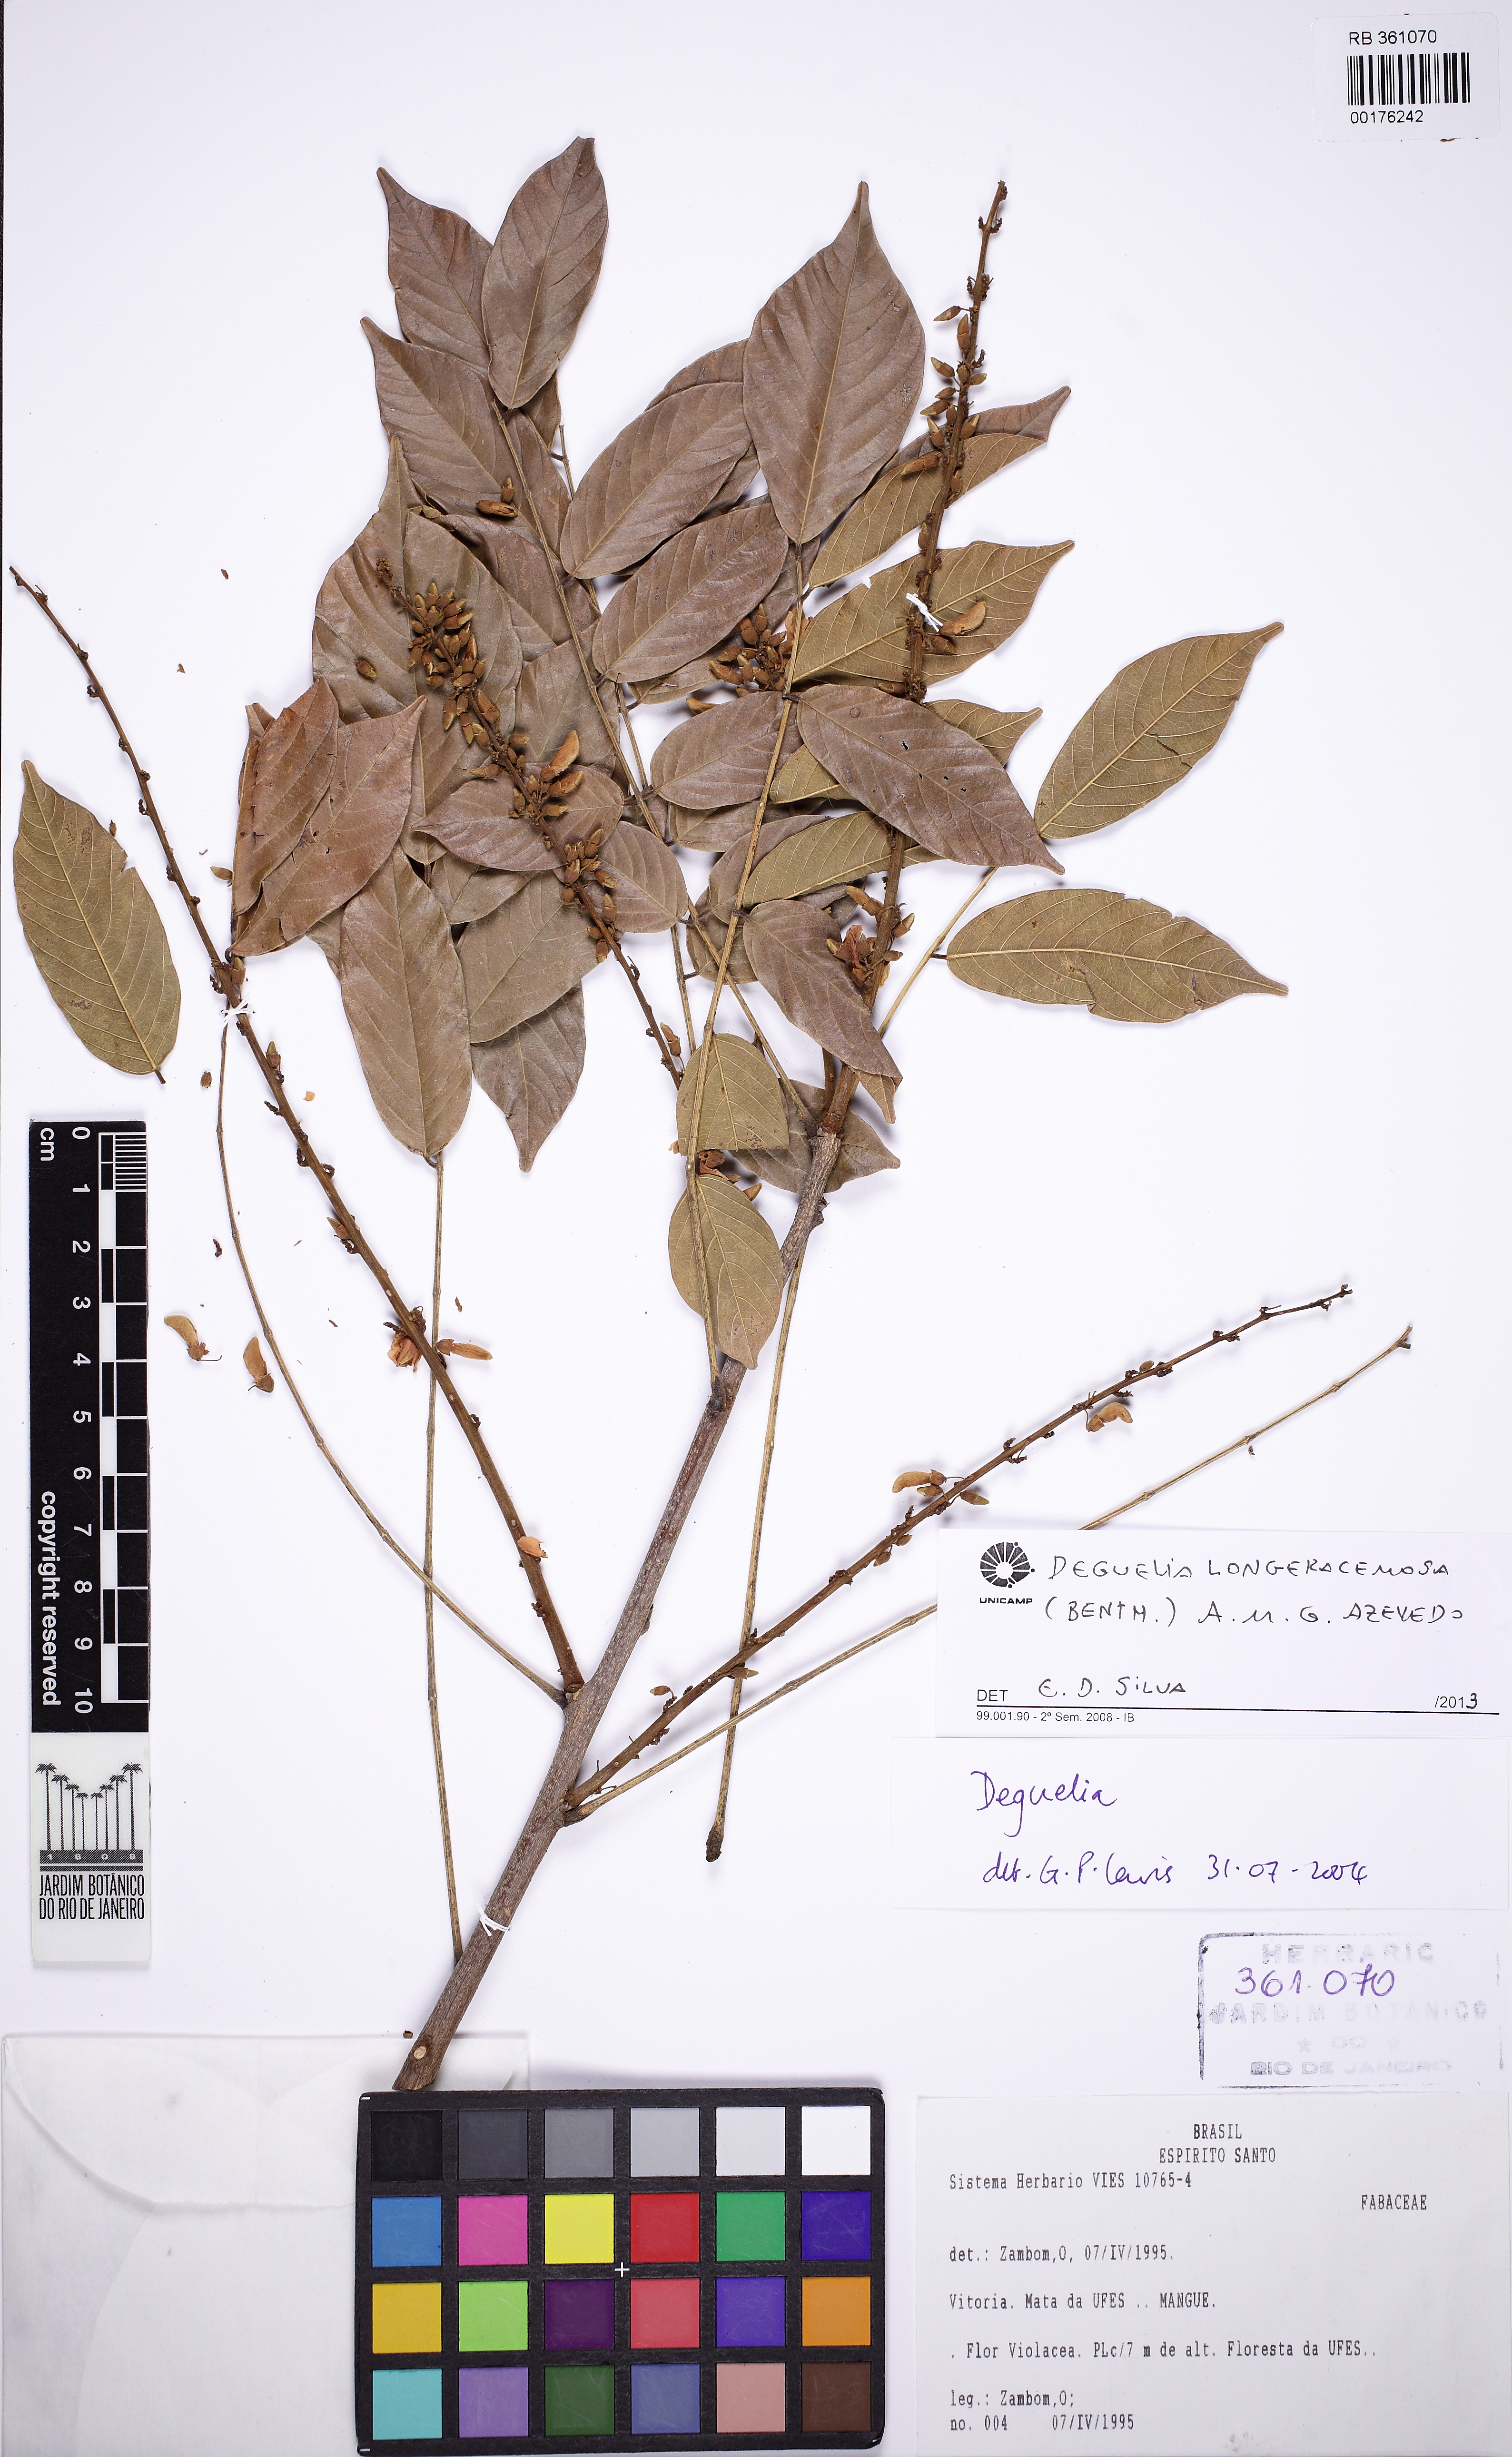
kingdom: Plantae
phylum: Tracheophyta
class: Magnoliopsida
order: Fabales
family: Fabaceae
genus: Deguelia
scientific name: Deguelia costata
